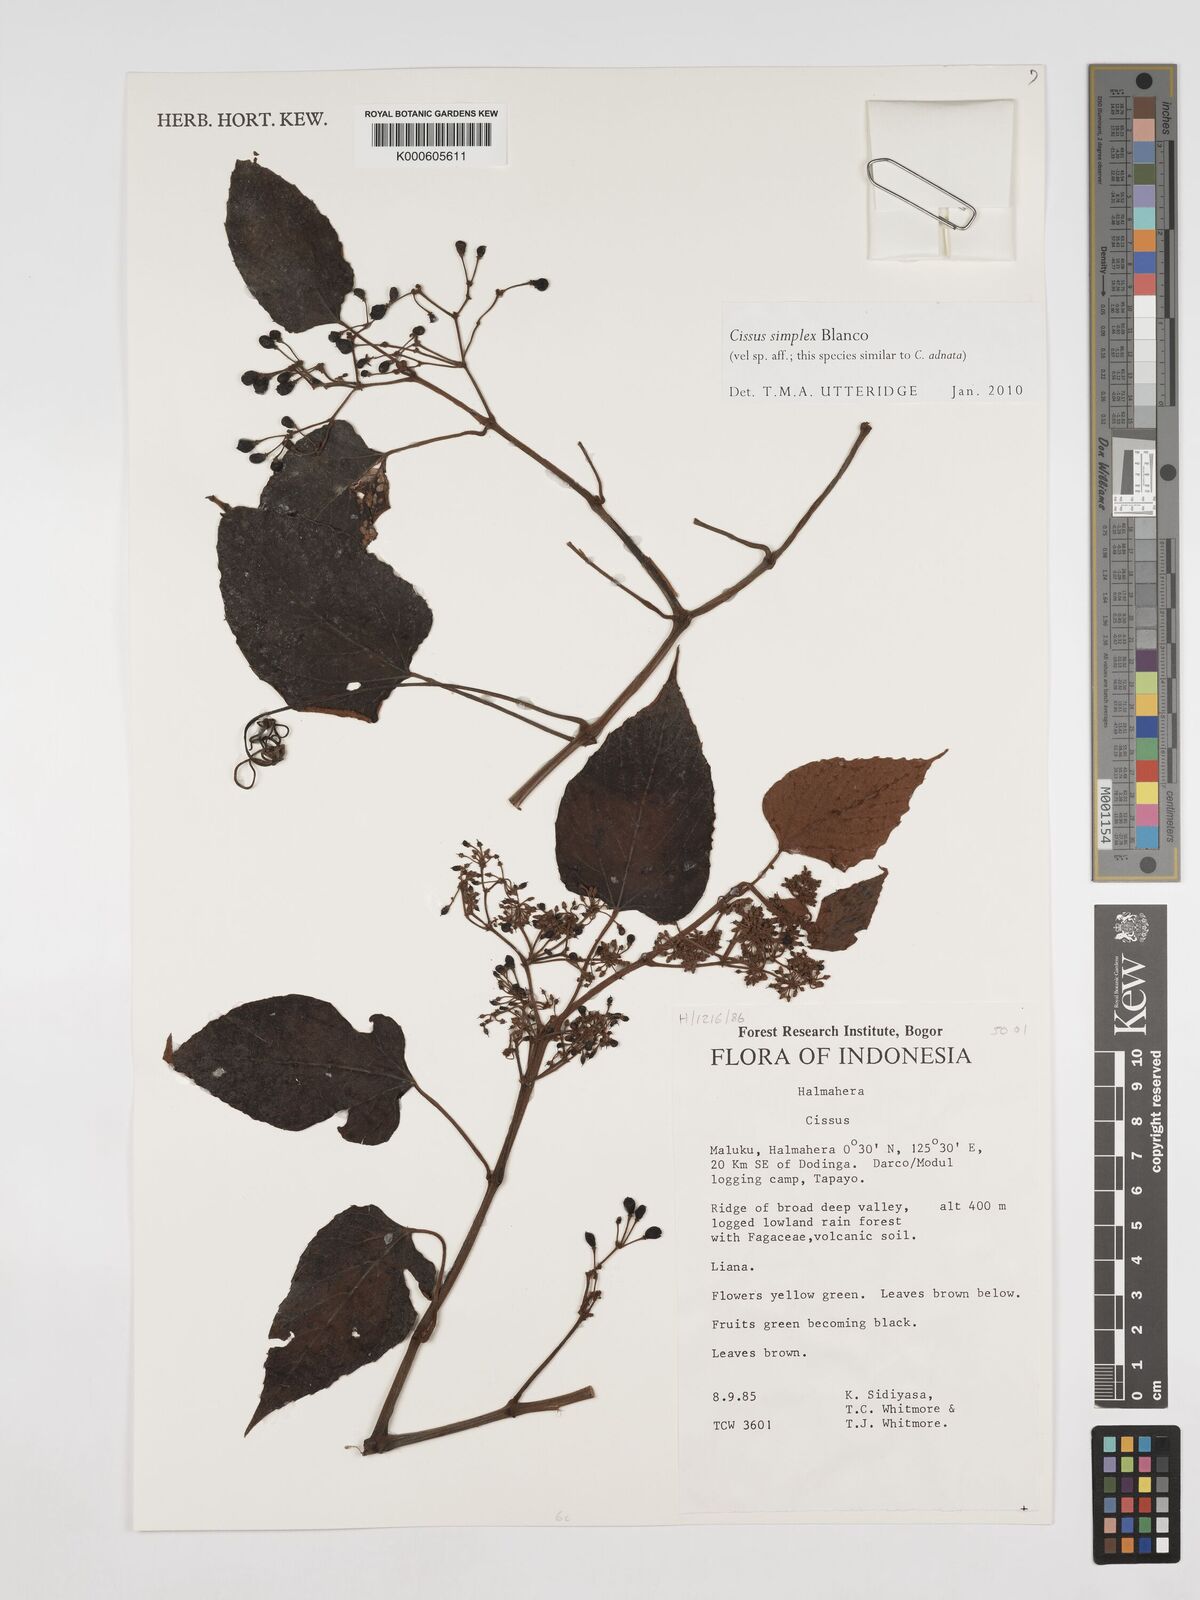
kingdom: Plantae
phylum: Tracheophyta
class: Magnoliopsida
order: Vitales
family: Vitaceae
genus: Cissus
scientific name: Cissus aristata
